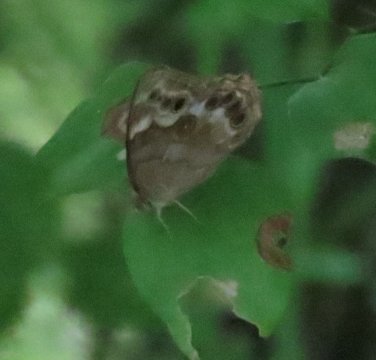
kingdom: Animalia
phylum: Arthropoda
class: Insecta
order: Lepidoptera
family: Nymphalidae
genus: Enodia
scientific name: Enodia portlandia
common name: Southern Pearly Eye
